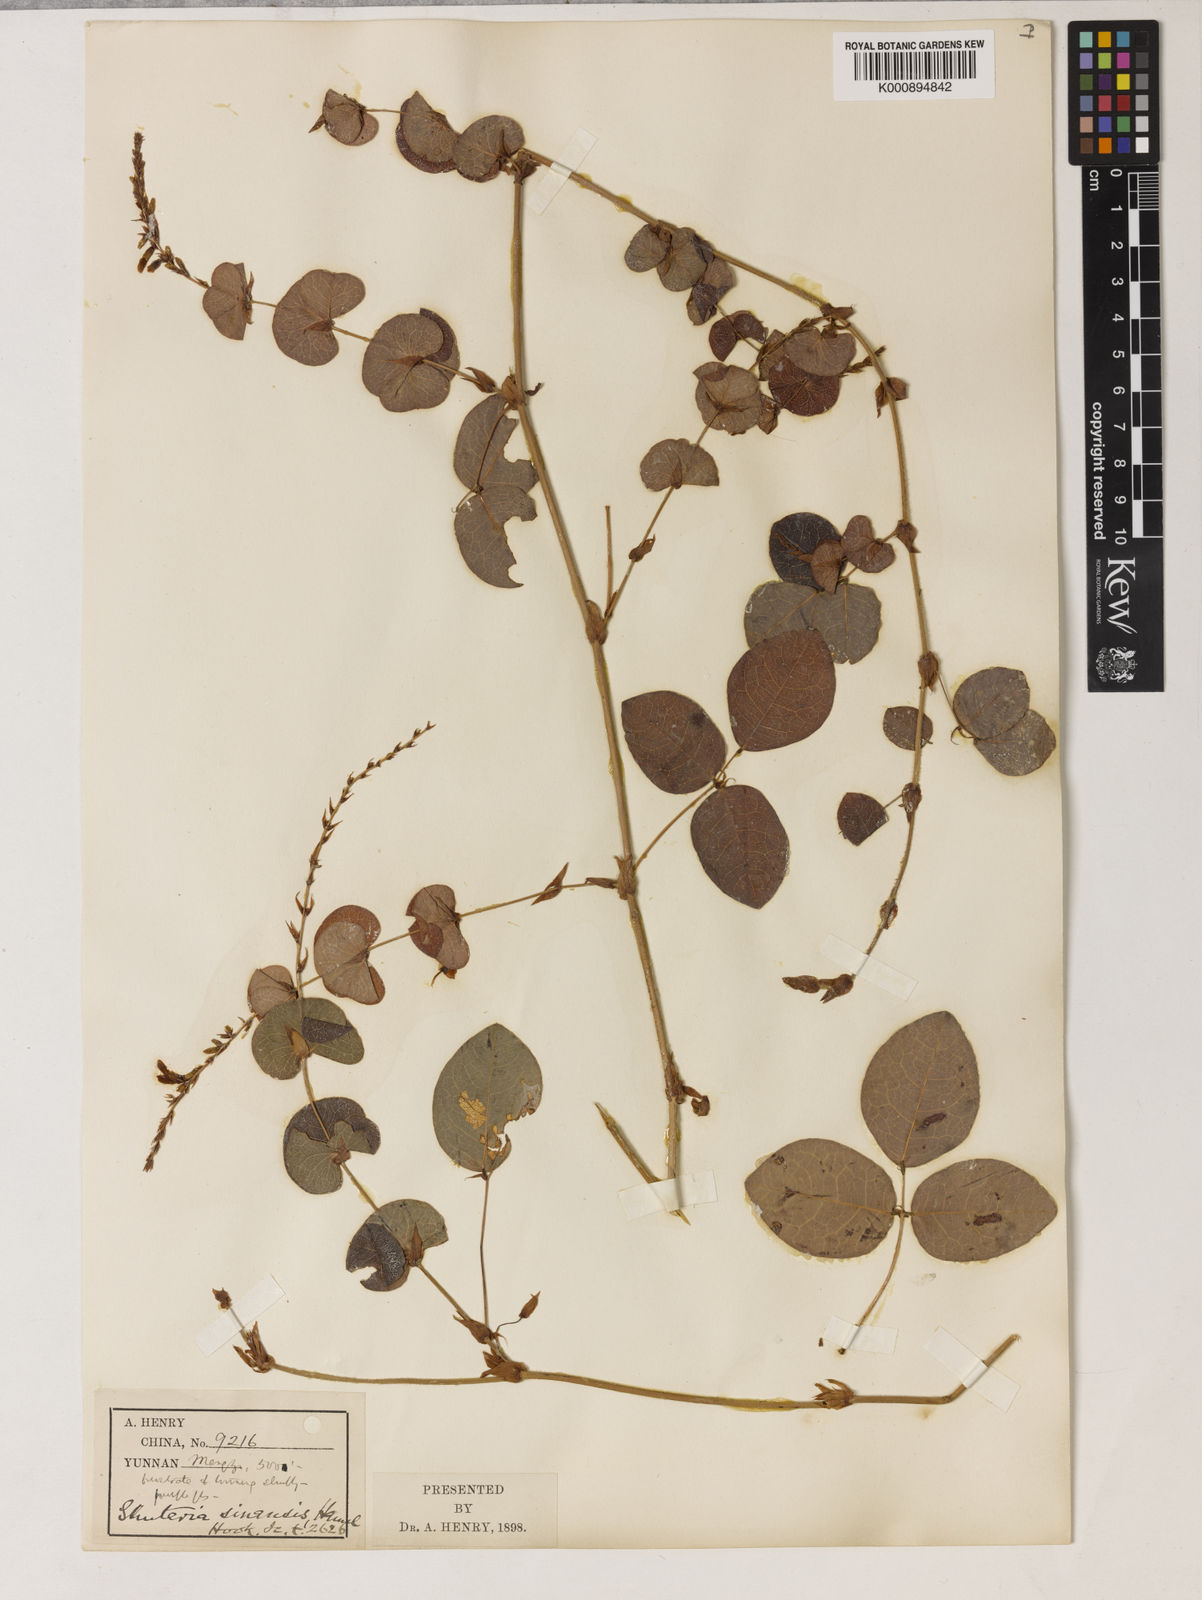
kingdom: Plantae
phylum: Tracheophyta
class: Magnoliopsida
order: Fabales
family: Fabaceae
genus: Shuteria
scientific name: Shuteria involucrata
